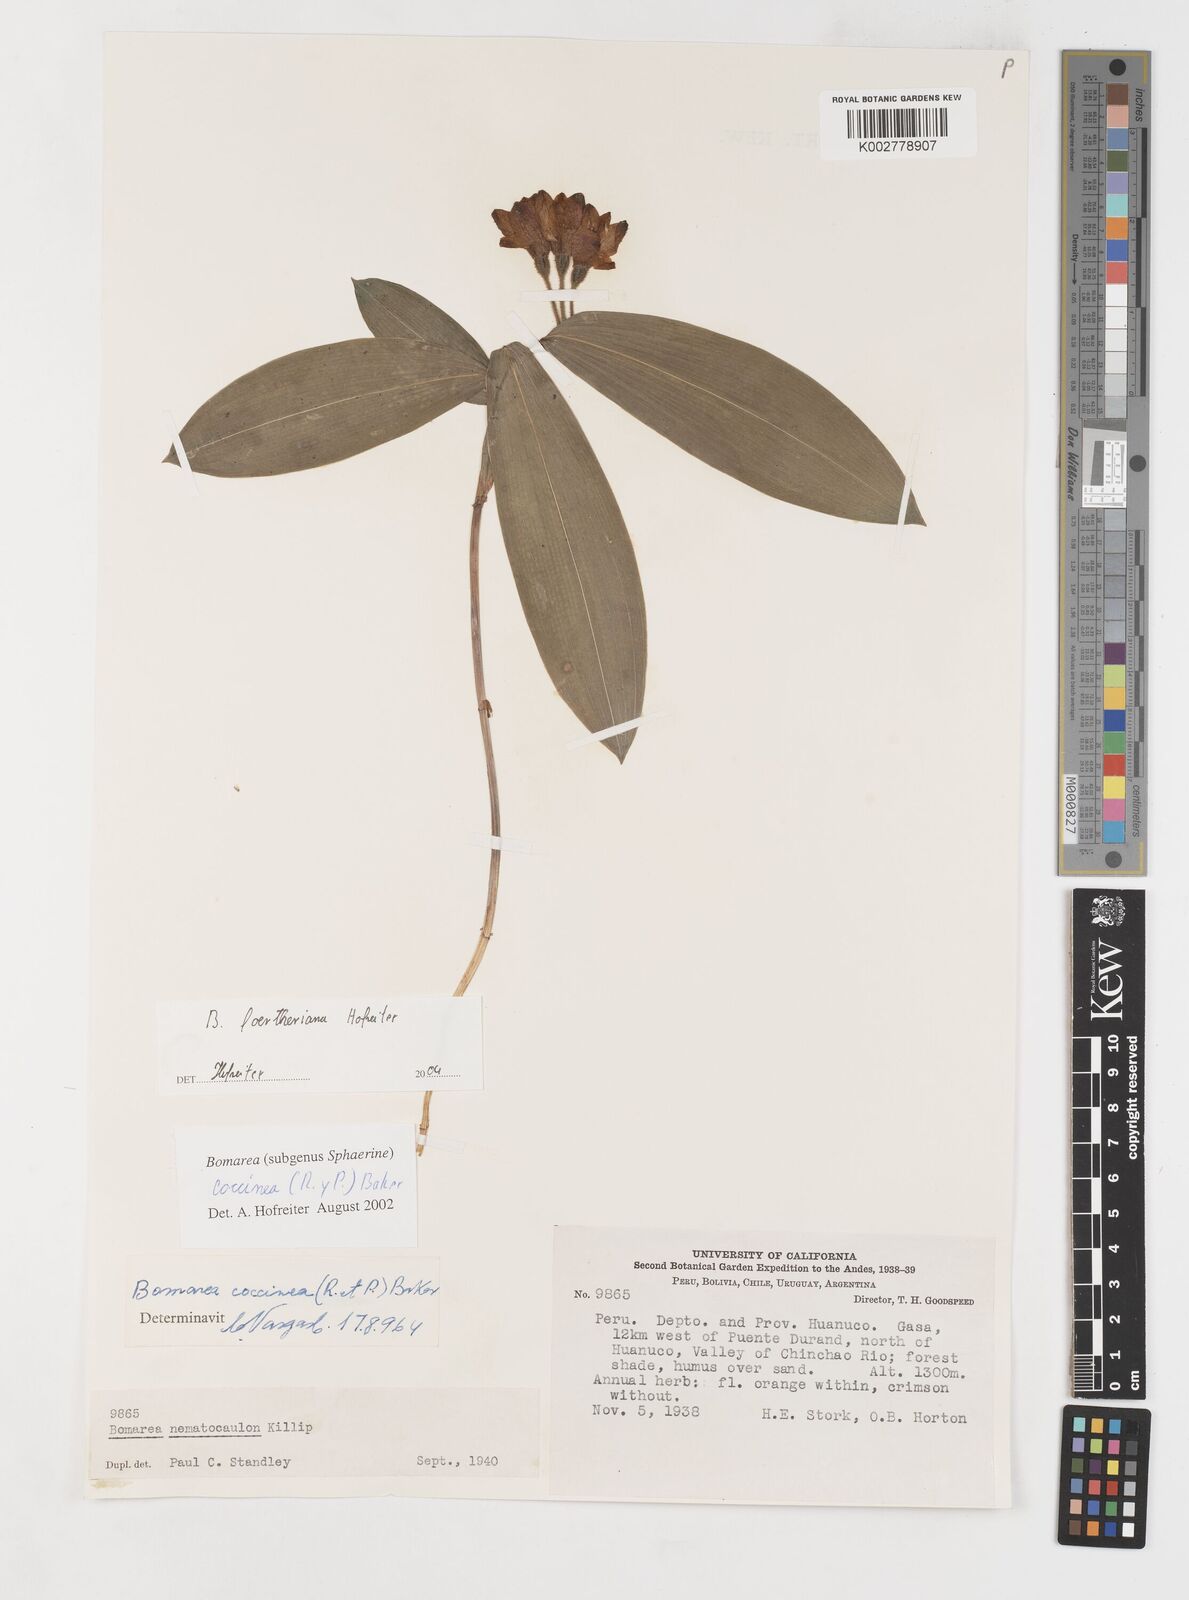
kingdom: Plantae
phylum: Tracheophyta
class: Liliopsida
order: Liliales
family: Alstroemeriaceae
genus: Bomarea
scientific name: Bomarea foertheriana
